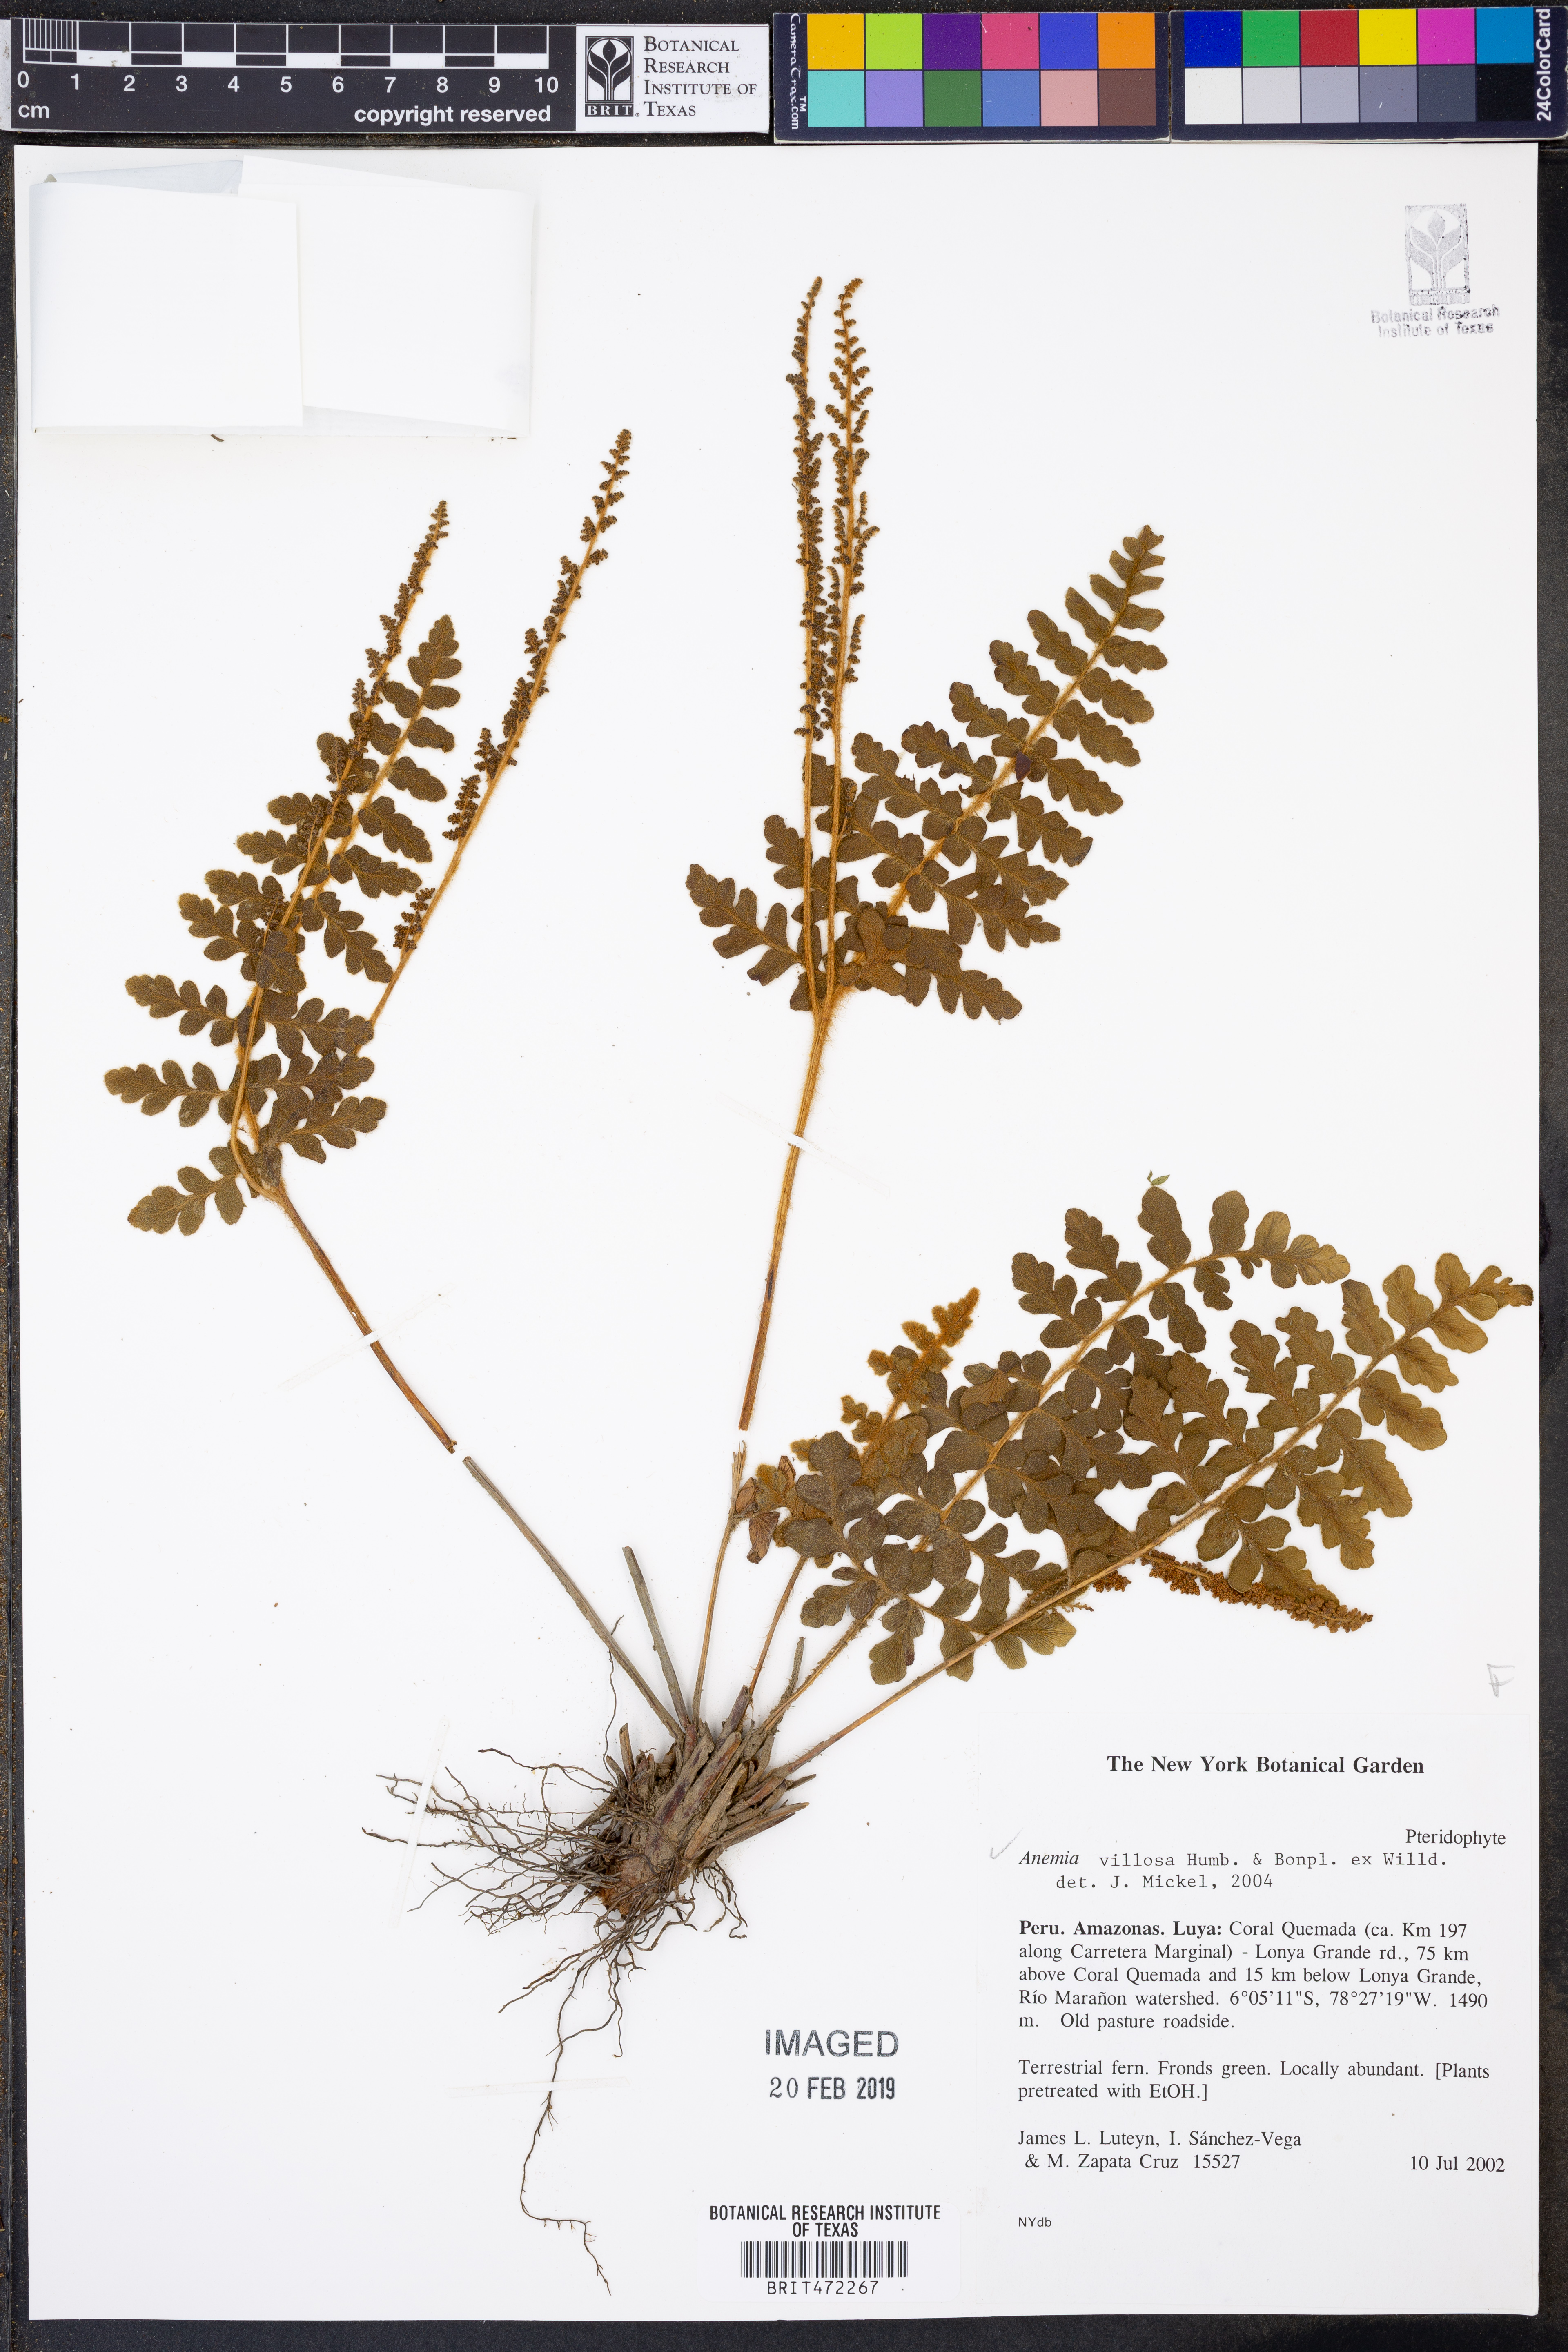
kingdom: Plantae
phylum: Tracheophyta
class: Polypodiopsida
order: Schizaeales
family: Anemiaceae
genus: Anemia
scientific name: Anemia villosa
